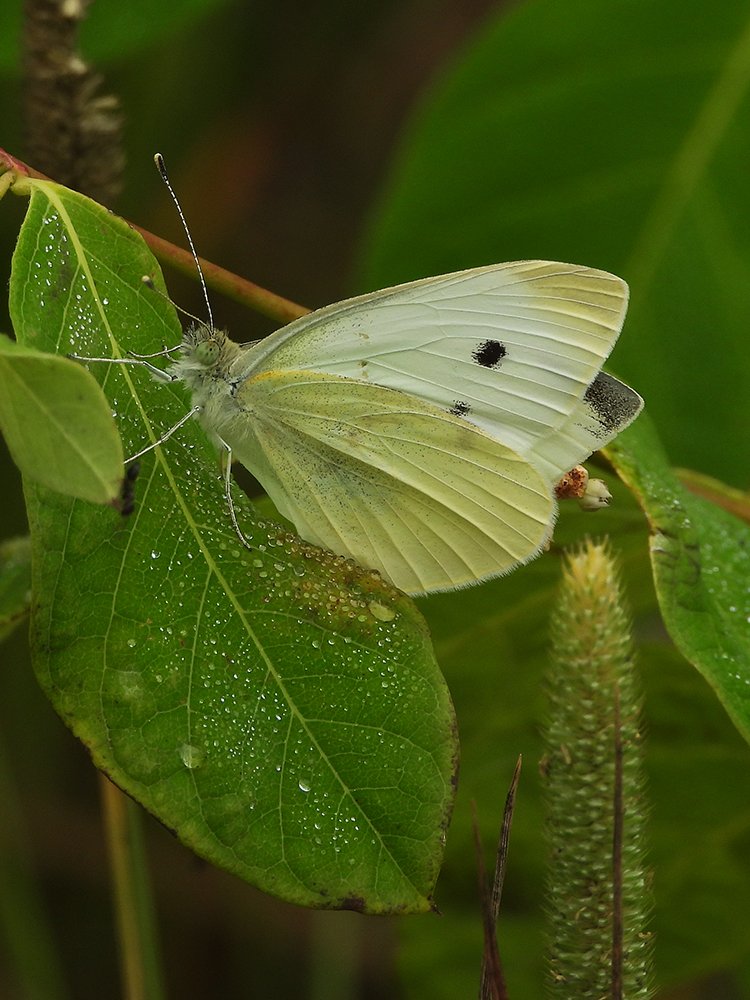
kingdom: Animalia
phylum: Arthropoda
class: Insecta
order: Lepidoptera
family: Pieridae
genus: Pieris
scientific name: Pieris rapae
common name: Cabbage White
